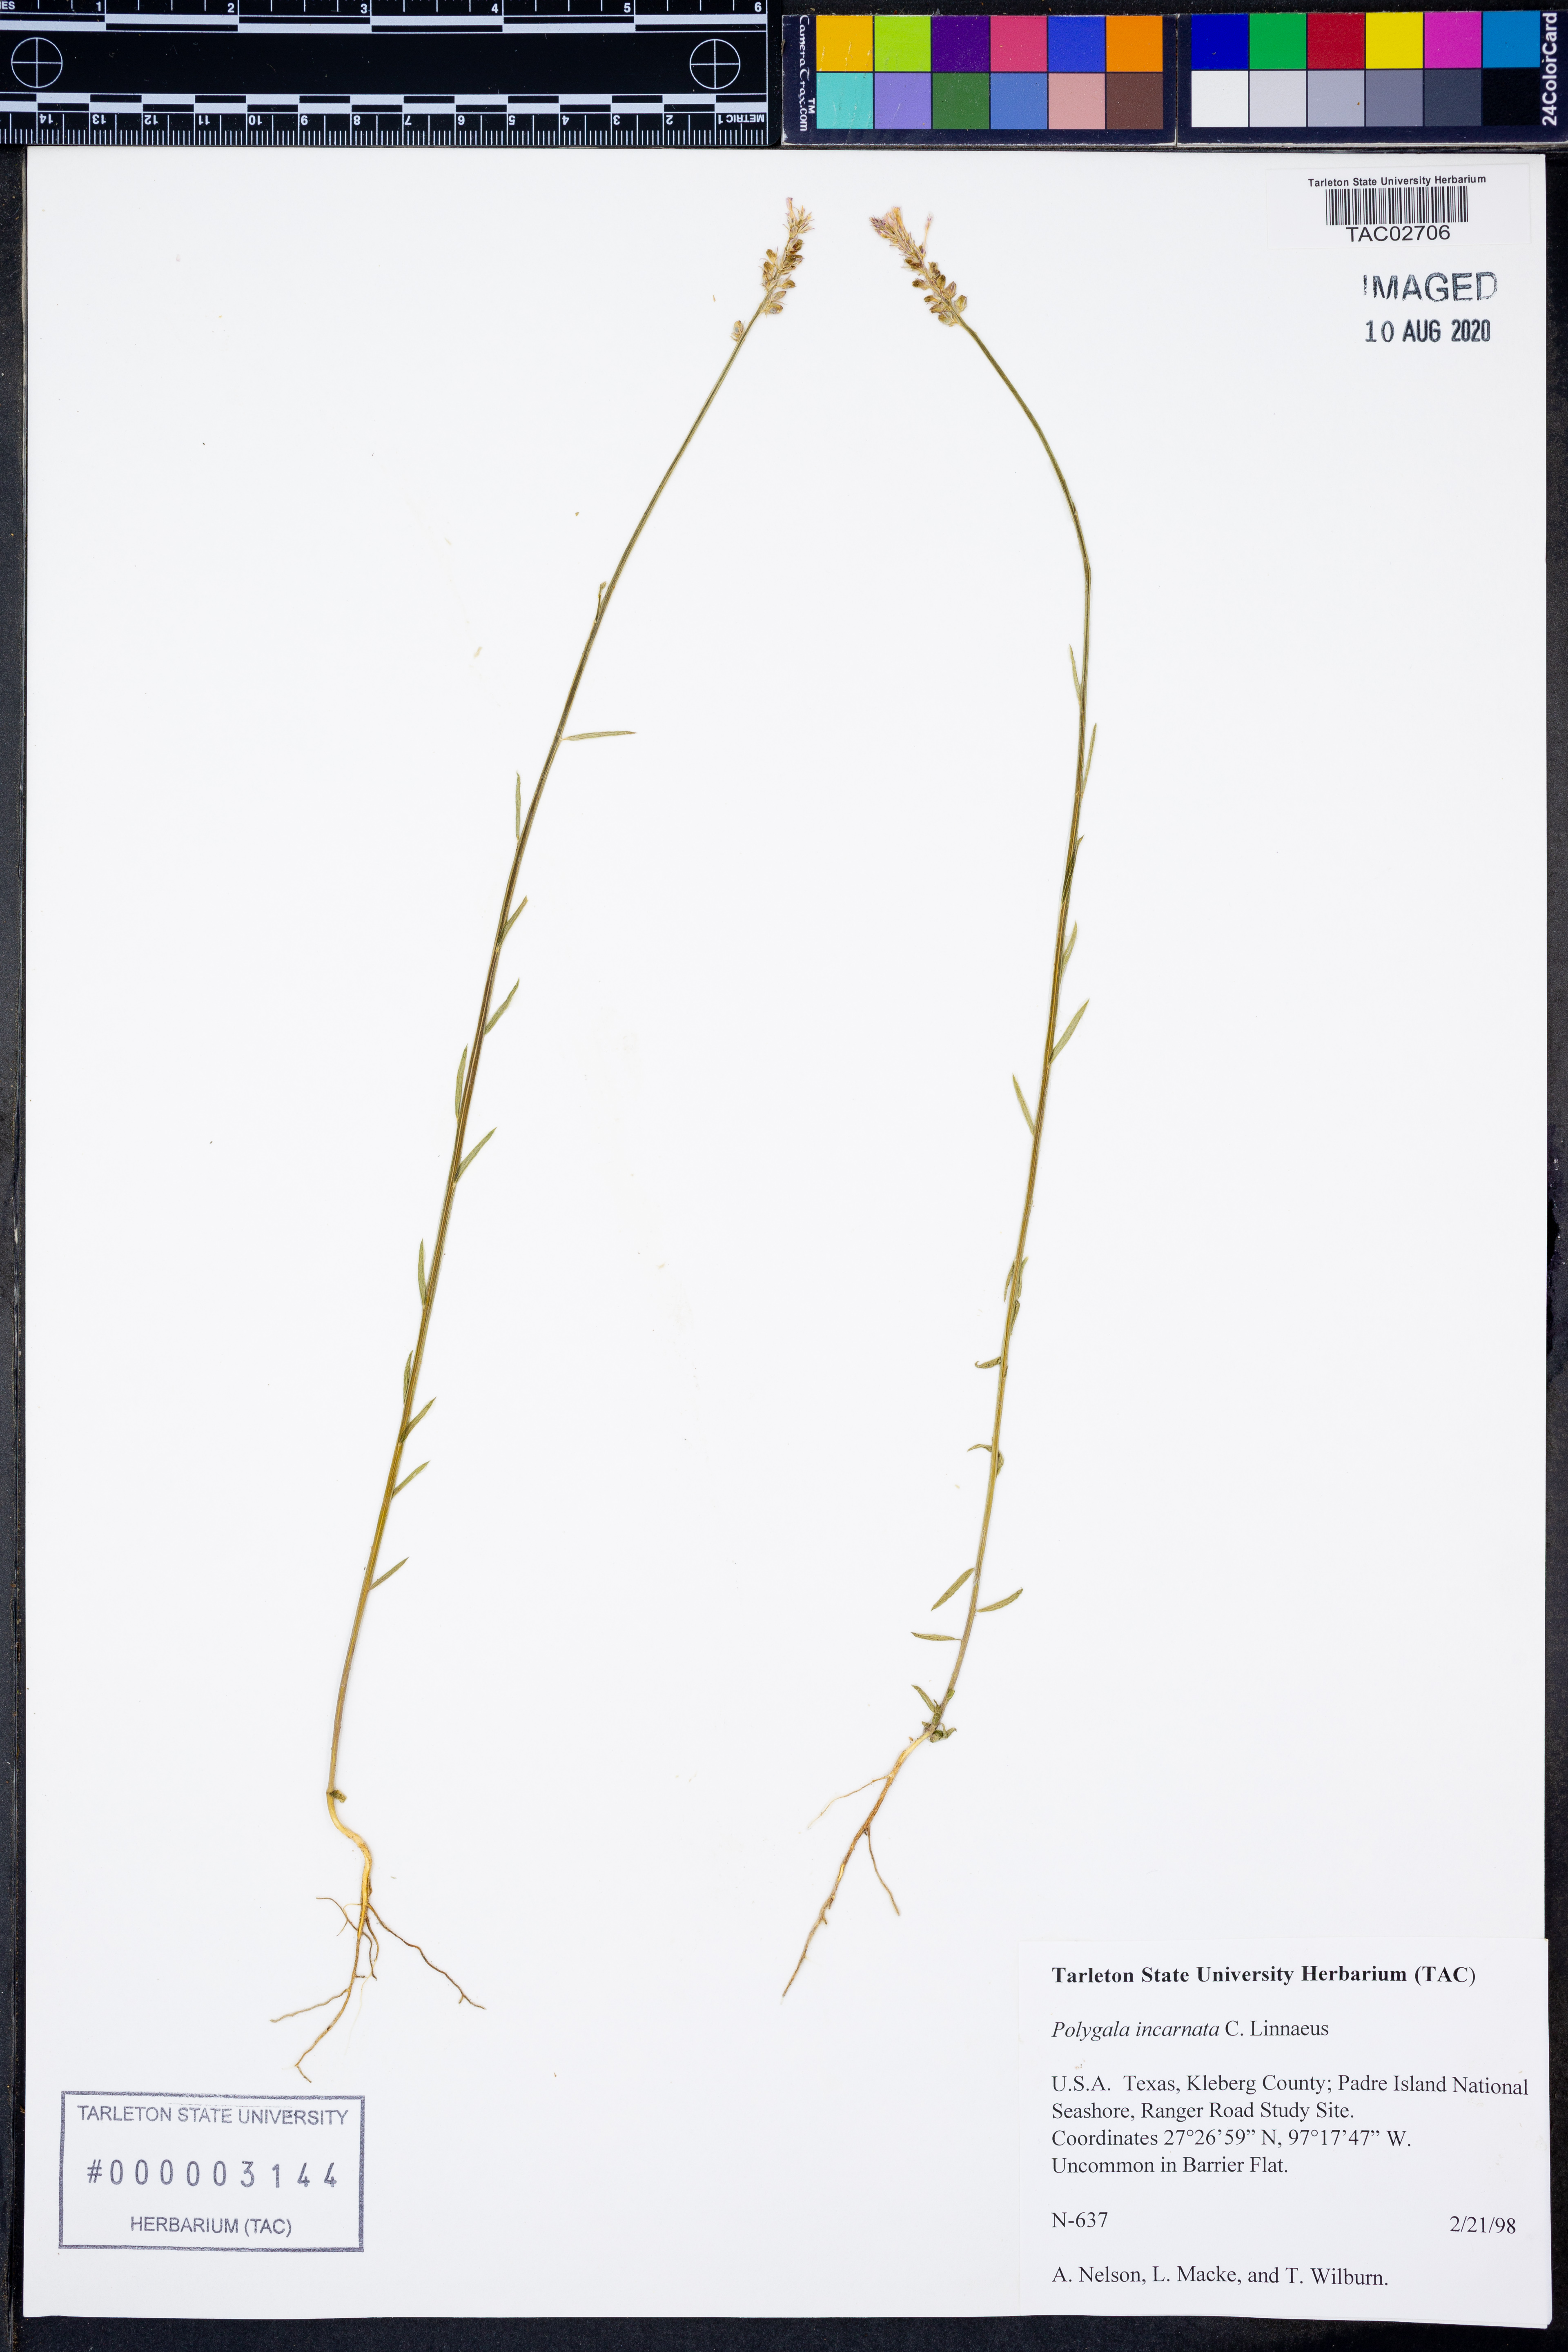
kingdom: Plantae
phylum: Tracheophyta
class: Magnoliopsida
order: Fabales
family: Polygalaceae
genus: Polygala
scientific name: Polygala incarnata
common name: Pink milkwort
